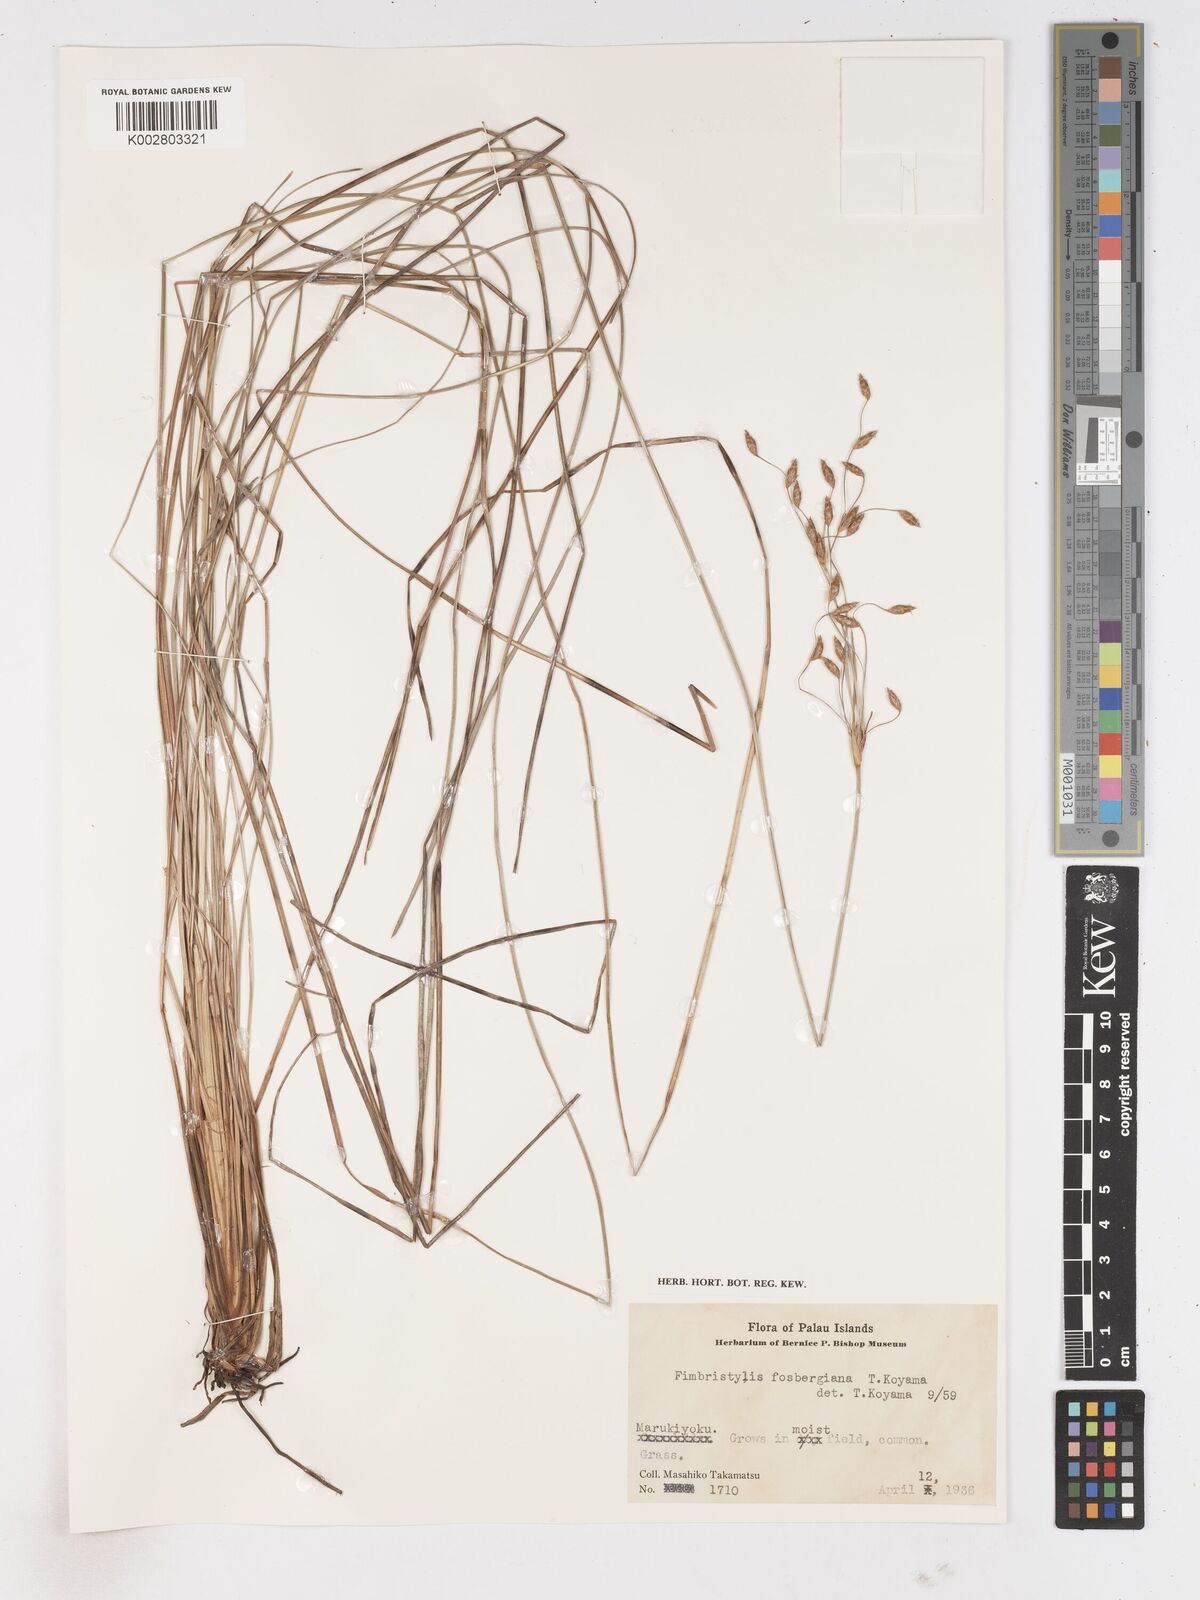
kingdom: Plantae
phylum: Tracheophyta
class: Liliopsida
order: Poales
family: Cyperaceae
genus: Fimbristylis
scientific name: Fimbristylis palauensis
